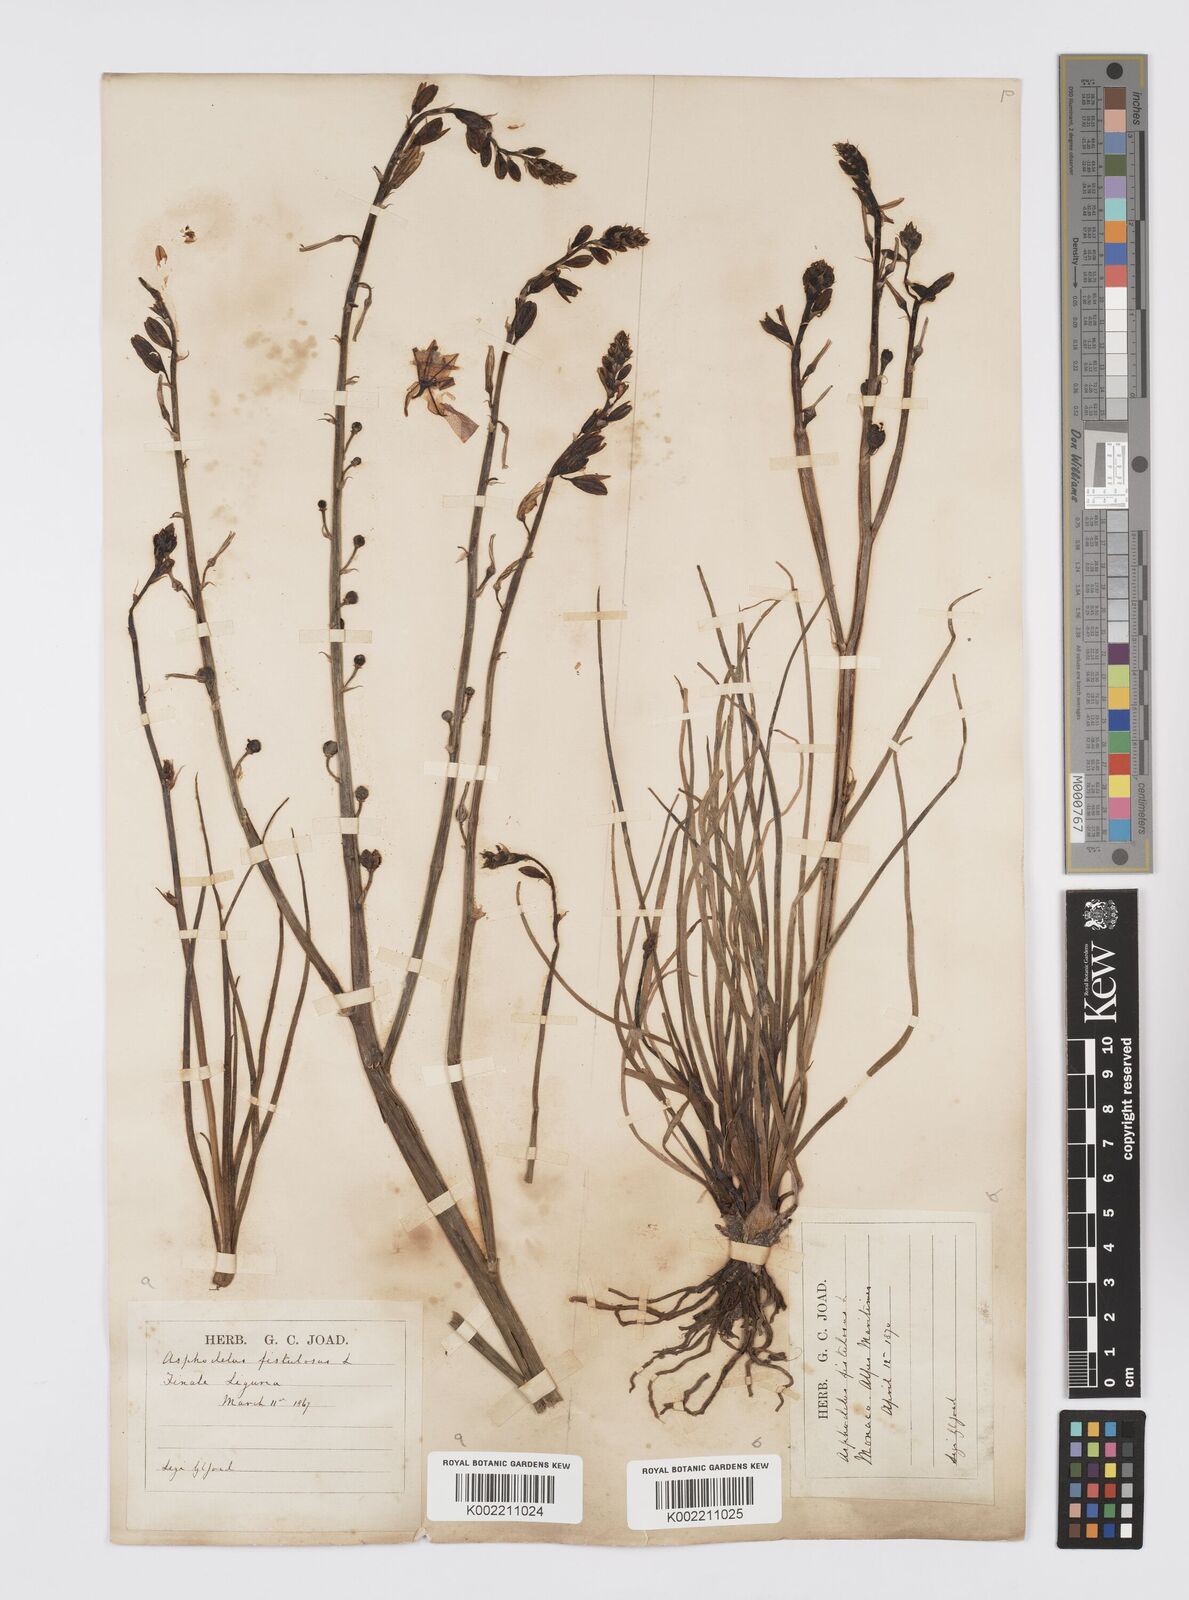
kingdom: Plantae
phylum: Tracheophyta
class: Liliopsida
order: Asparagales
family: Asphodelaceae
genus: Asphodelus
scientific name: Asphodelus fistulosus
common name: Onionweed
